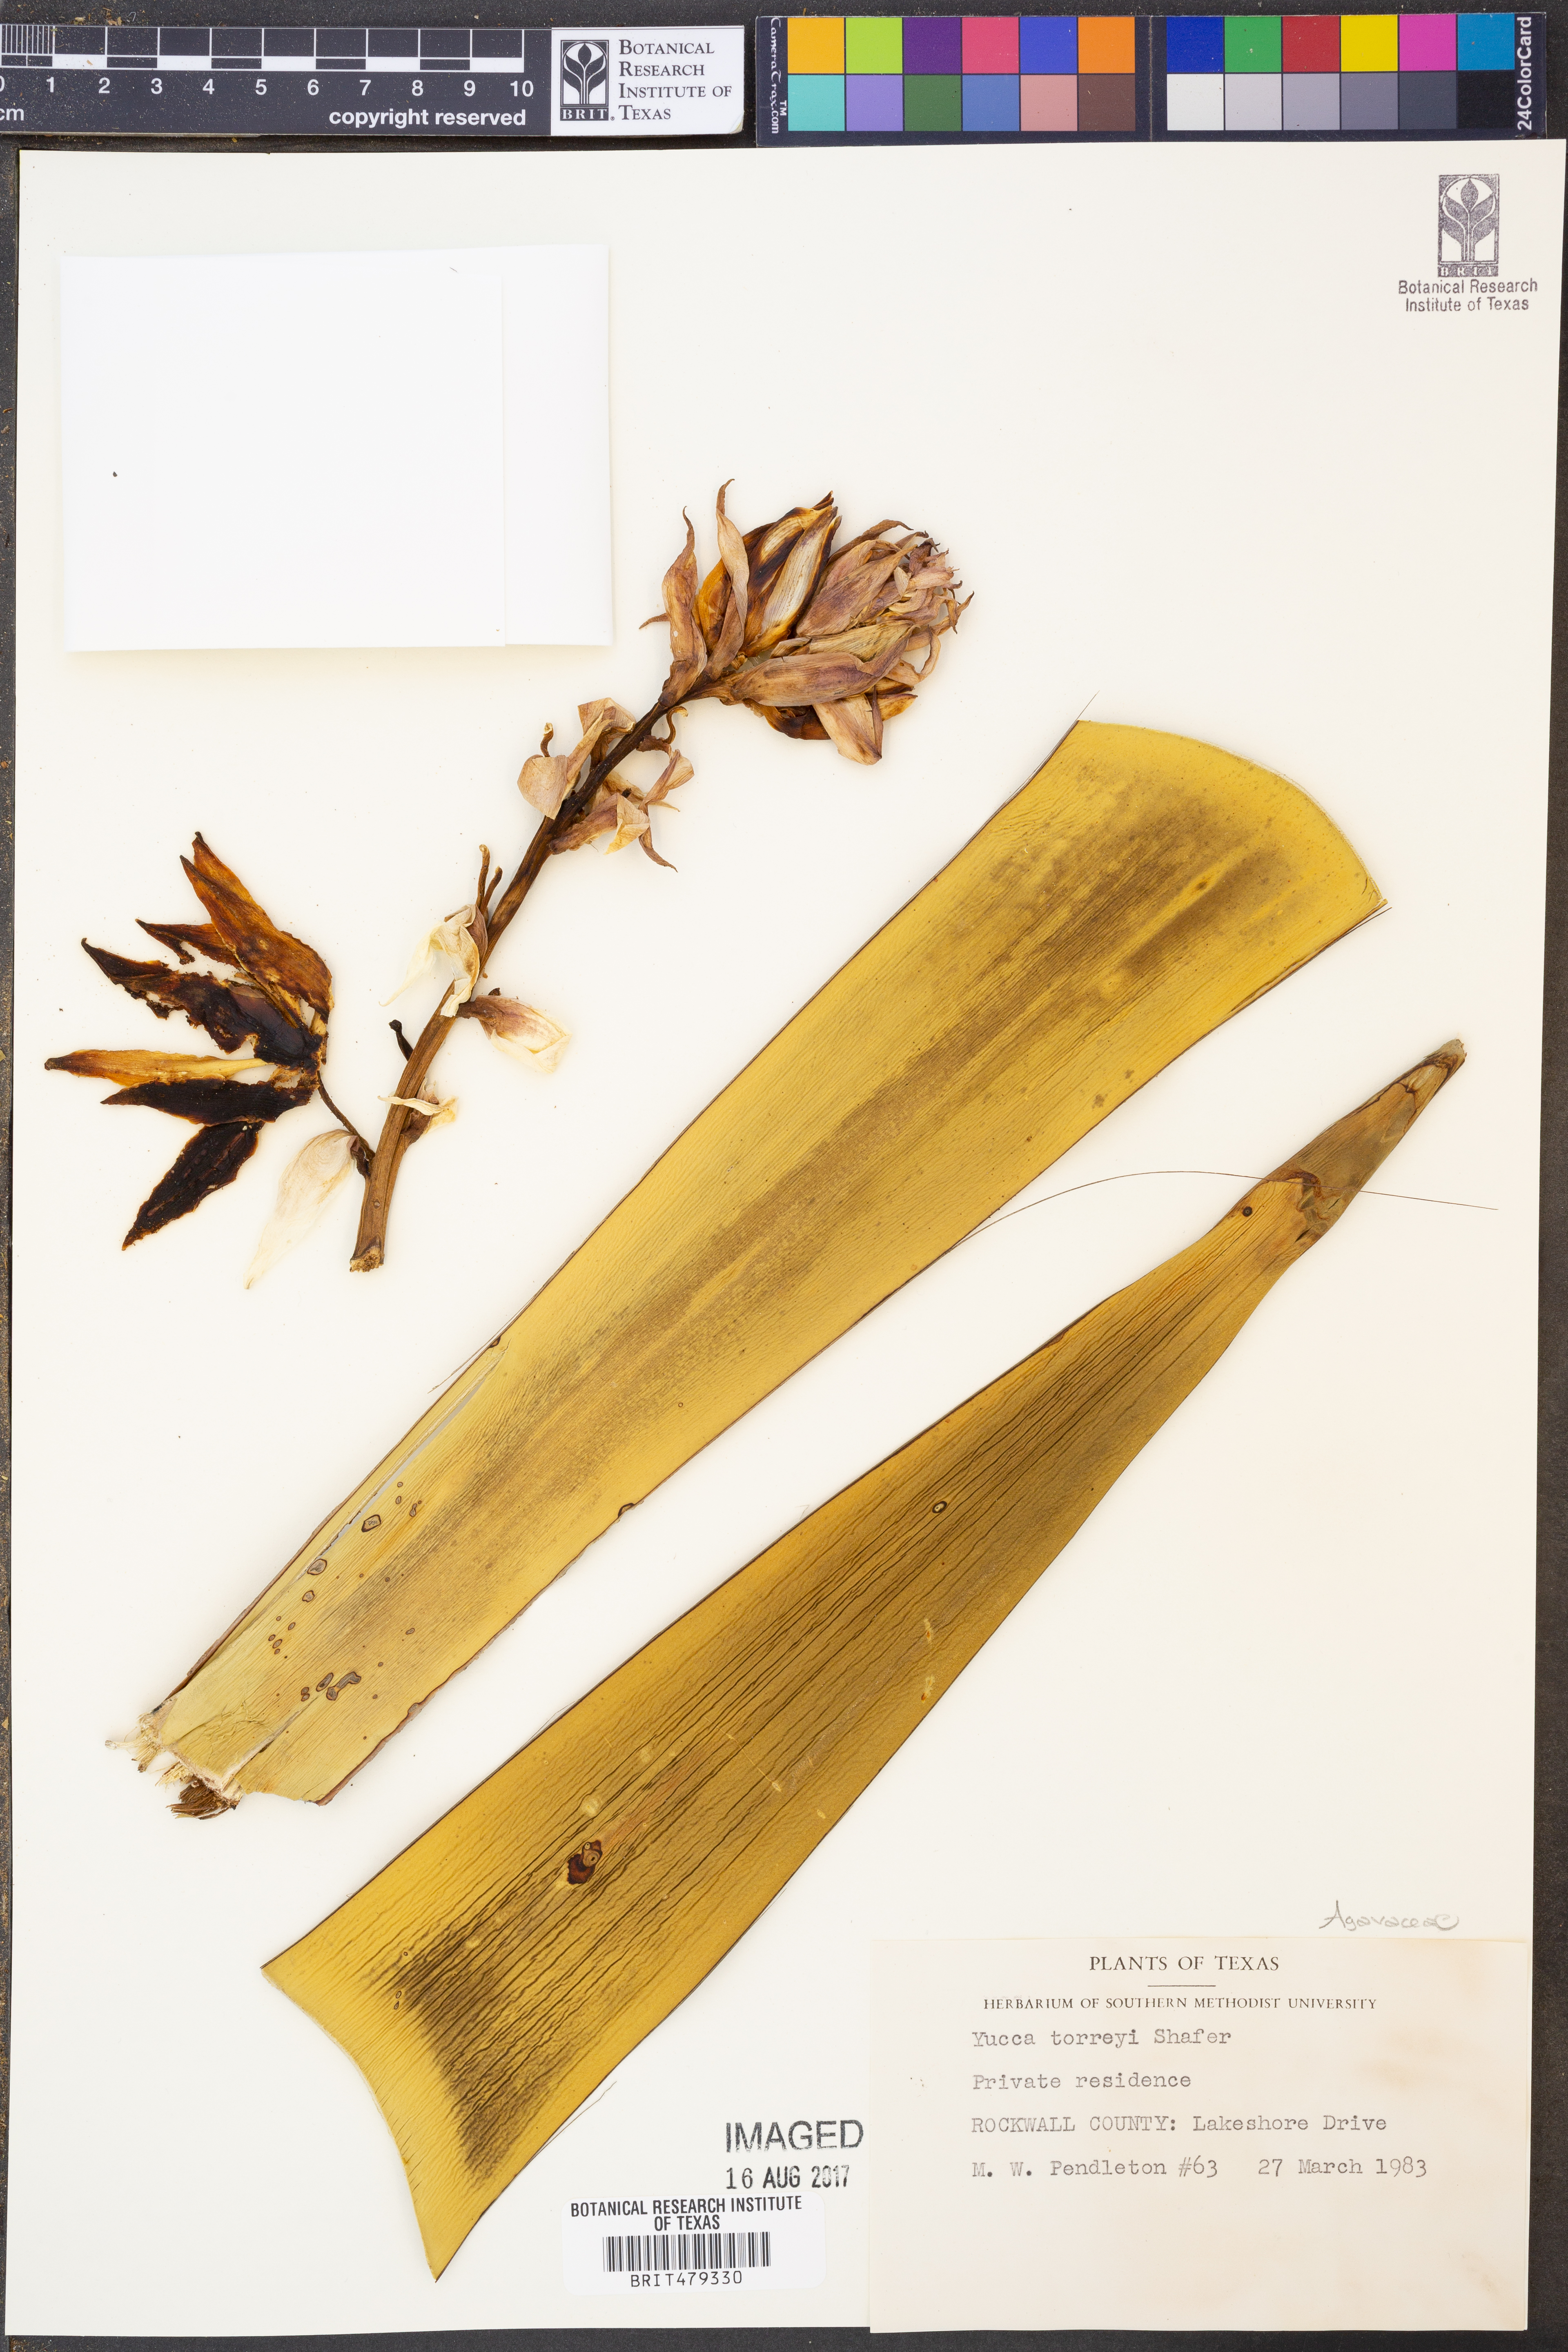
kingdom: Plantae
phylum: Tracheophyta
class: Liliopsida
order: Asparagales
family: Asparagaceae
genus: Yucca
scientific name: Yucca treculiana
